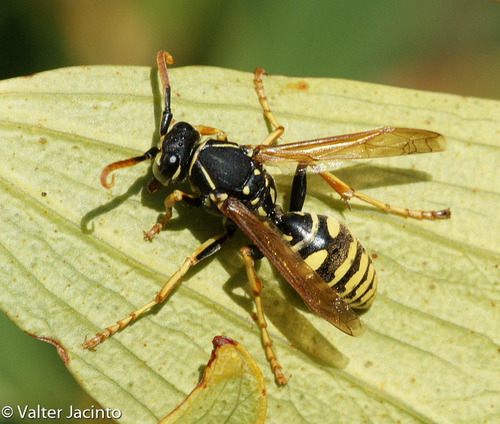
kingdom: Animalia
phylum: Arthropoda
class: Insecta
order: Hymenoptera
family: Eumenidae
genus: Polistes
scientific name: Polistes nimpha
